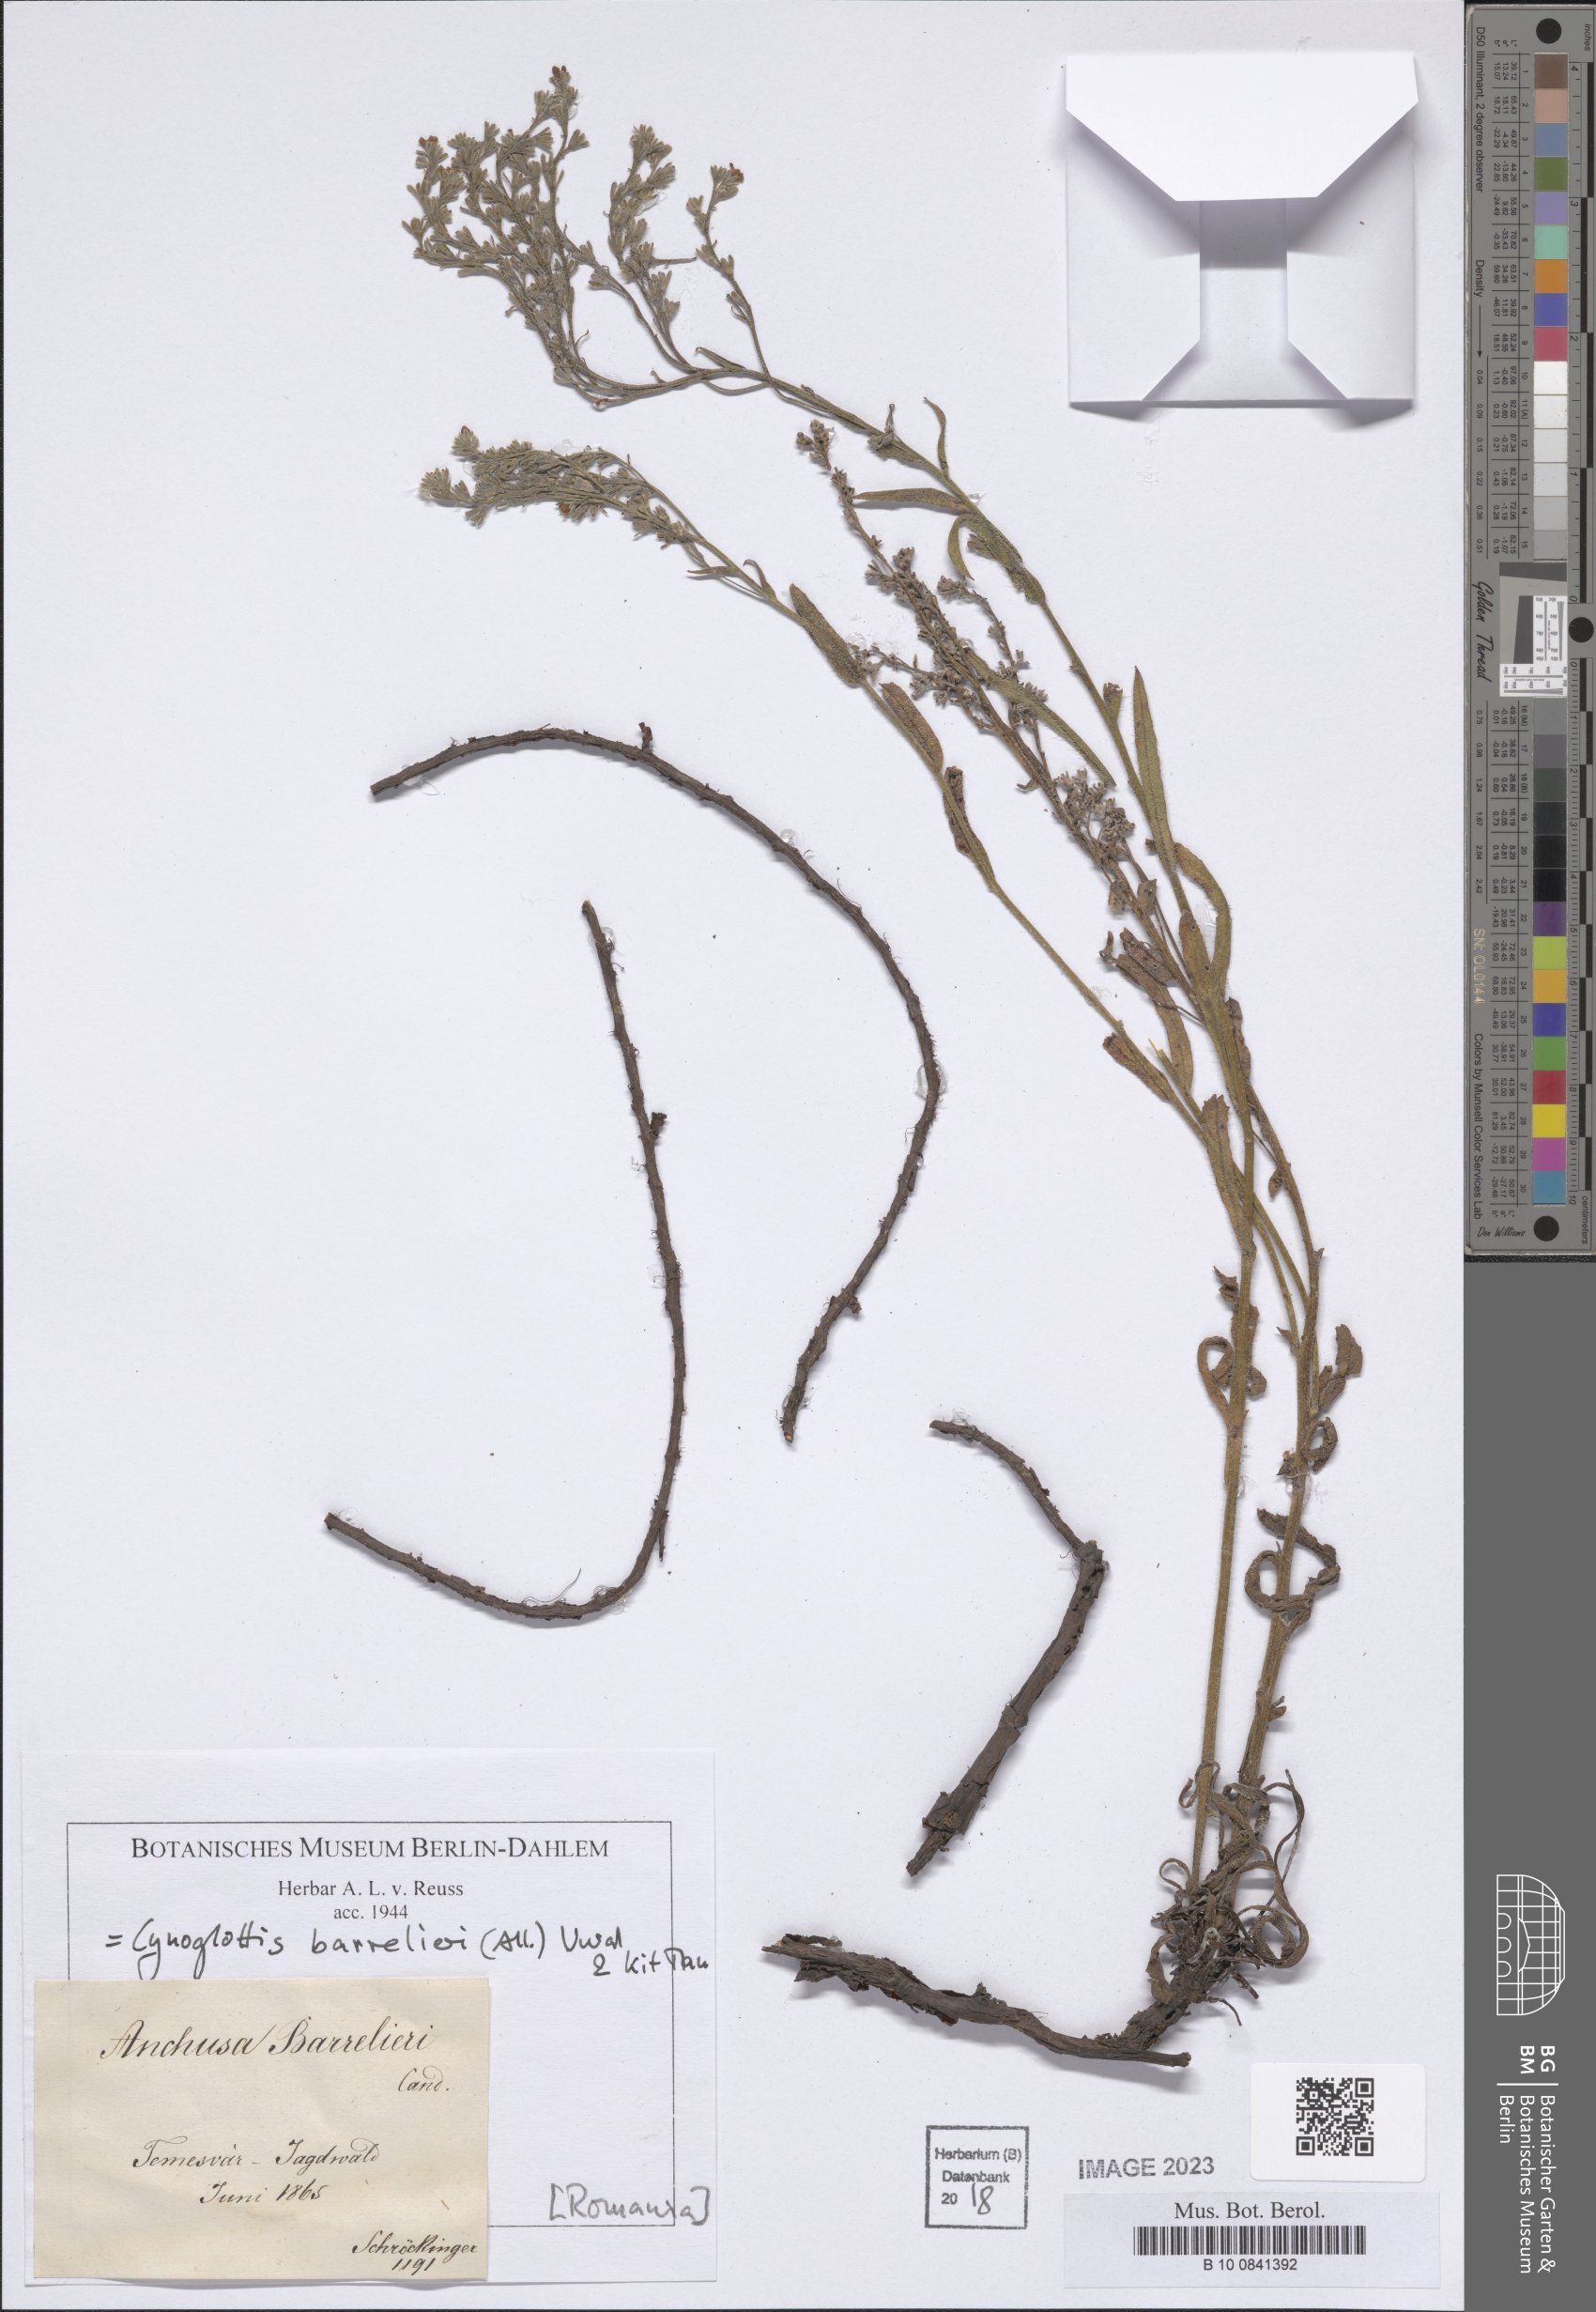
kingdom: Plantae
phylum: Tracheophyta
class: Magnoliopsida
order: Boraginales
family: Boraginaceae
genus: Cynoglottis
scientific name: Cynoglottis barrelieri
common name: False alkanet
